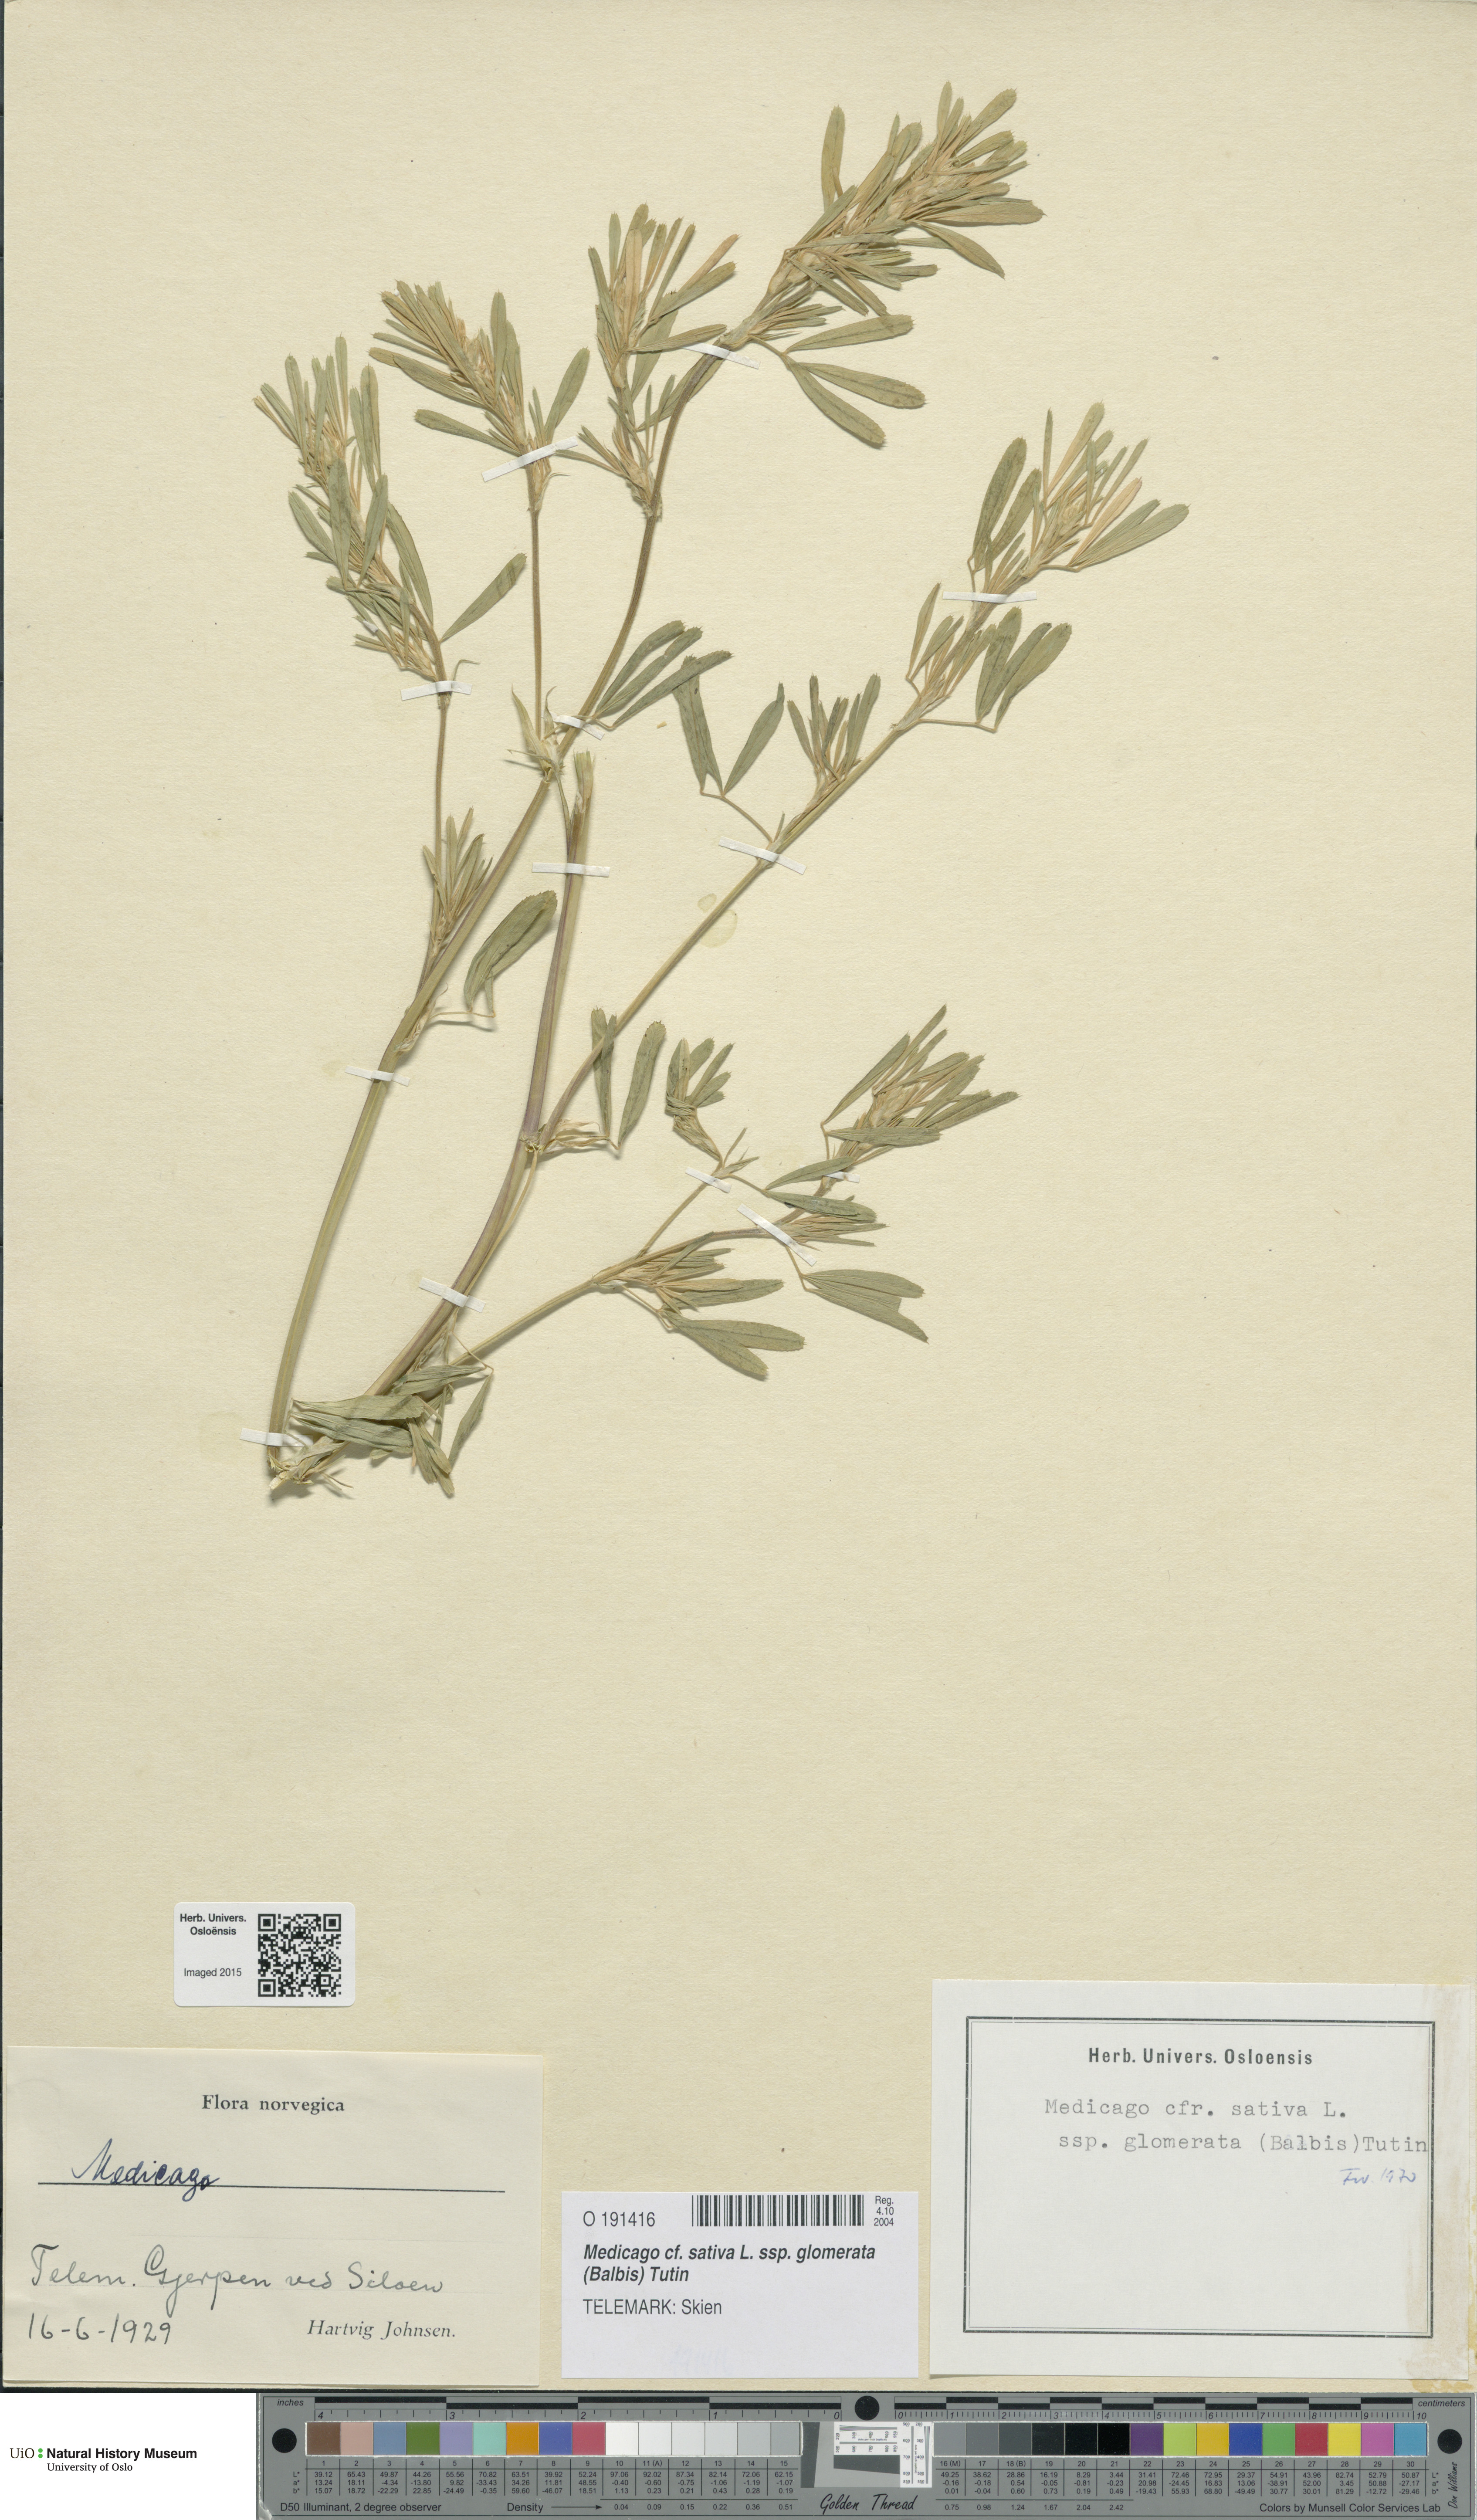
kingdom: Plantae
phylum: Tracheophyta
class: Magnoliopsida
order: Fabales
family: Fabaceae
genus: Medicago
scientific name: Medicago sativa
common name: Alfalfa
